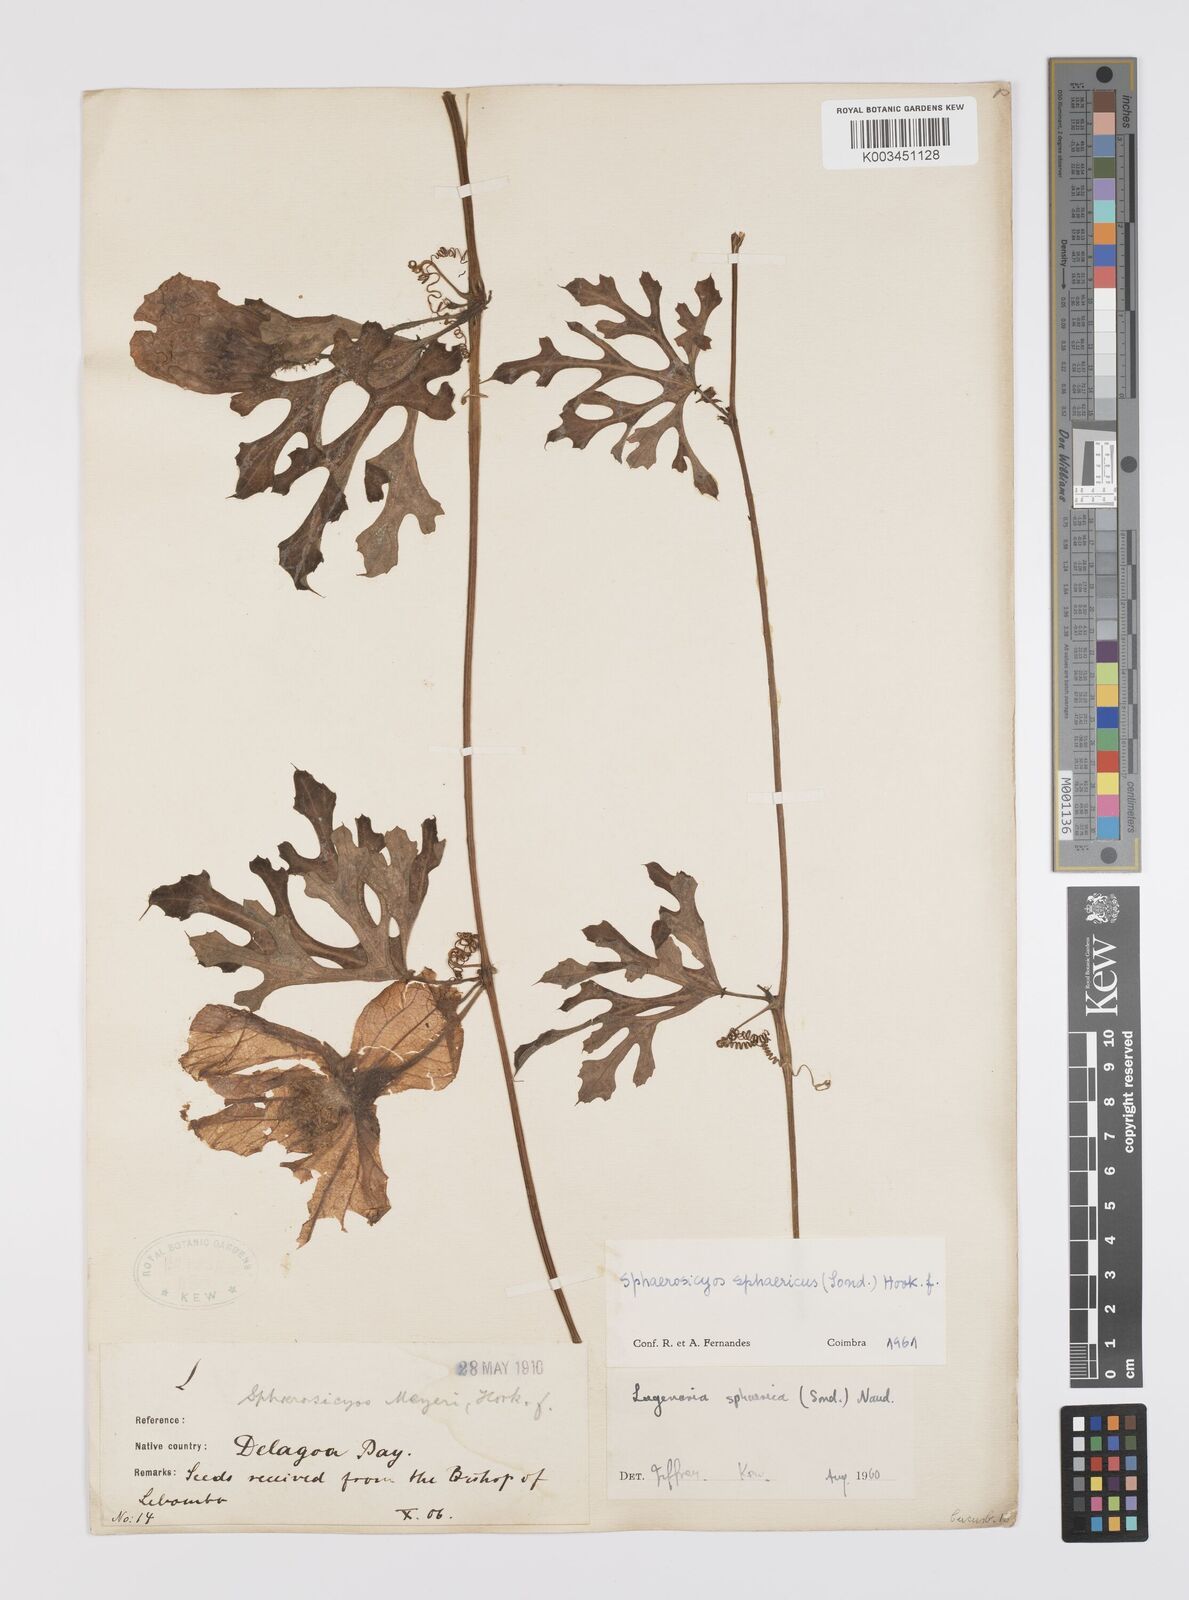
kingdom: Plantae
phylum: Tracheophyta
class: Magnoliopsida
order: Cucurbitales
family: Cucurbitaceae
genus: Lagenaria
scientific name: Lagenaria sphaerica
